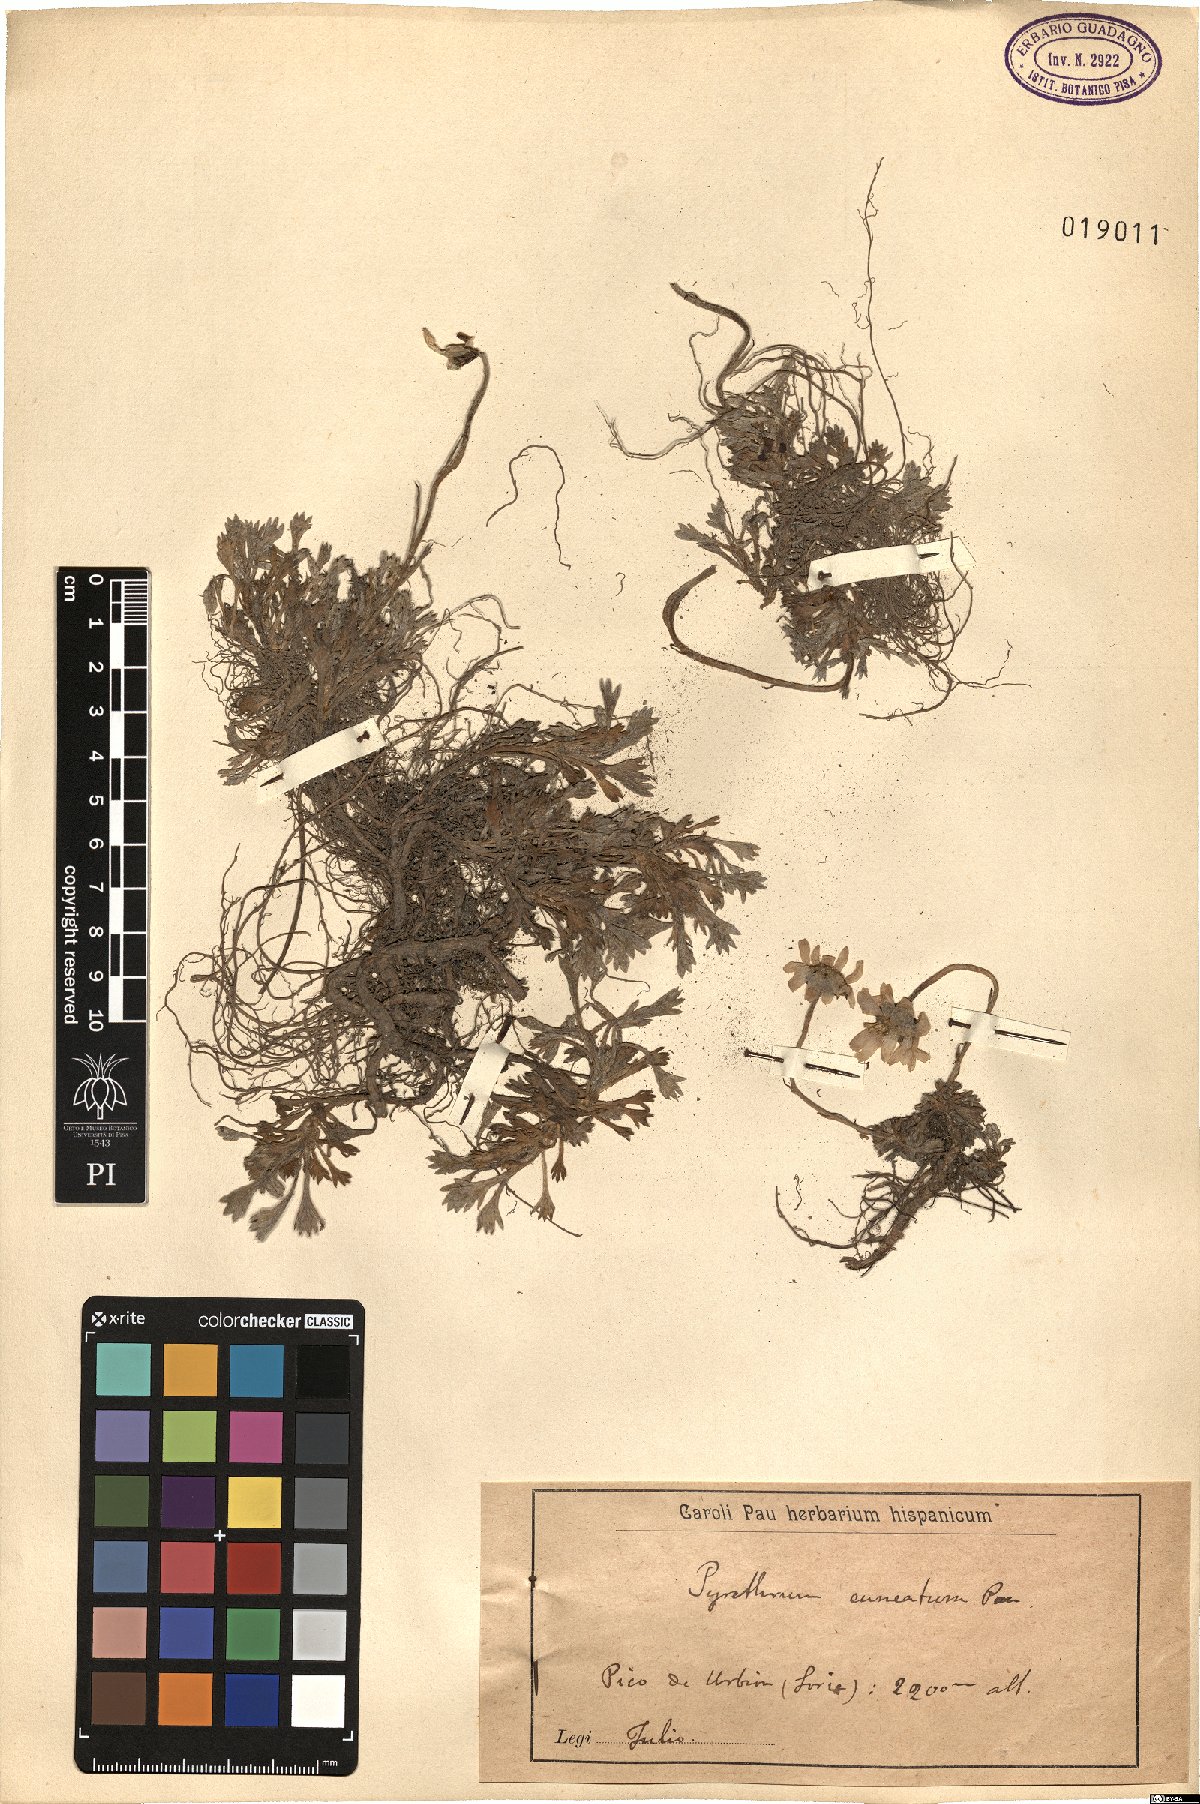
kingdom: Plantae
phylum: Tracheophyta
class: Magnoliopsida
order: Asterales
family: Asteraceae
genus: Pyrethrum
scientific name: Pyrethrum
